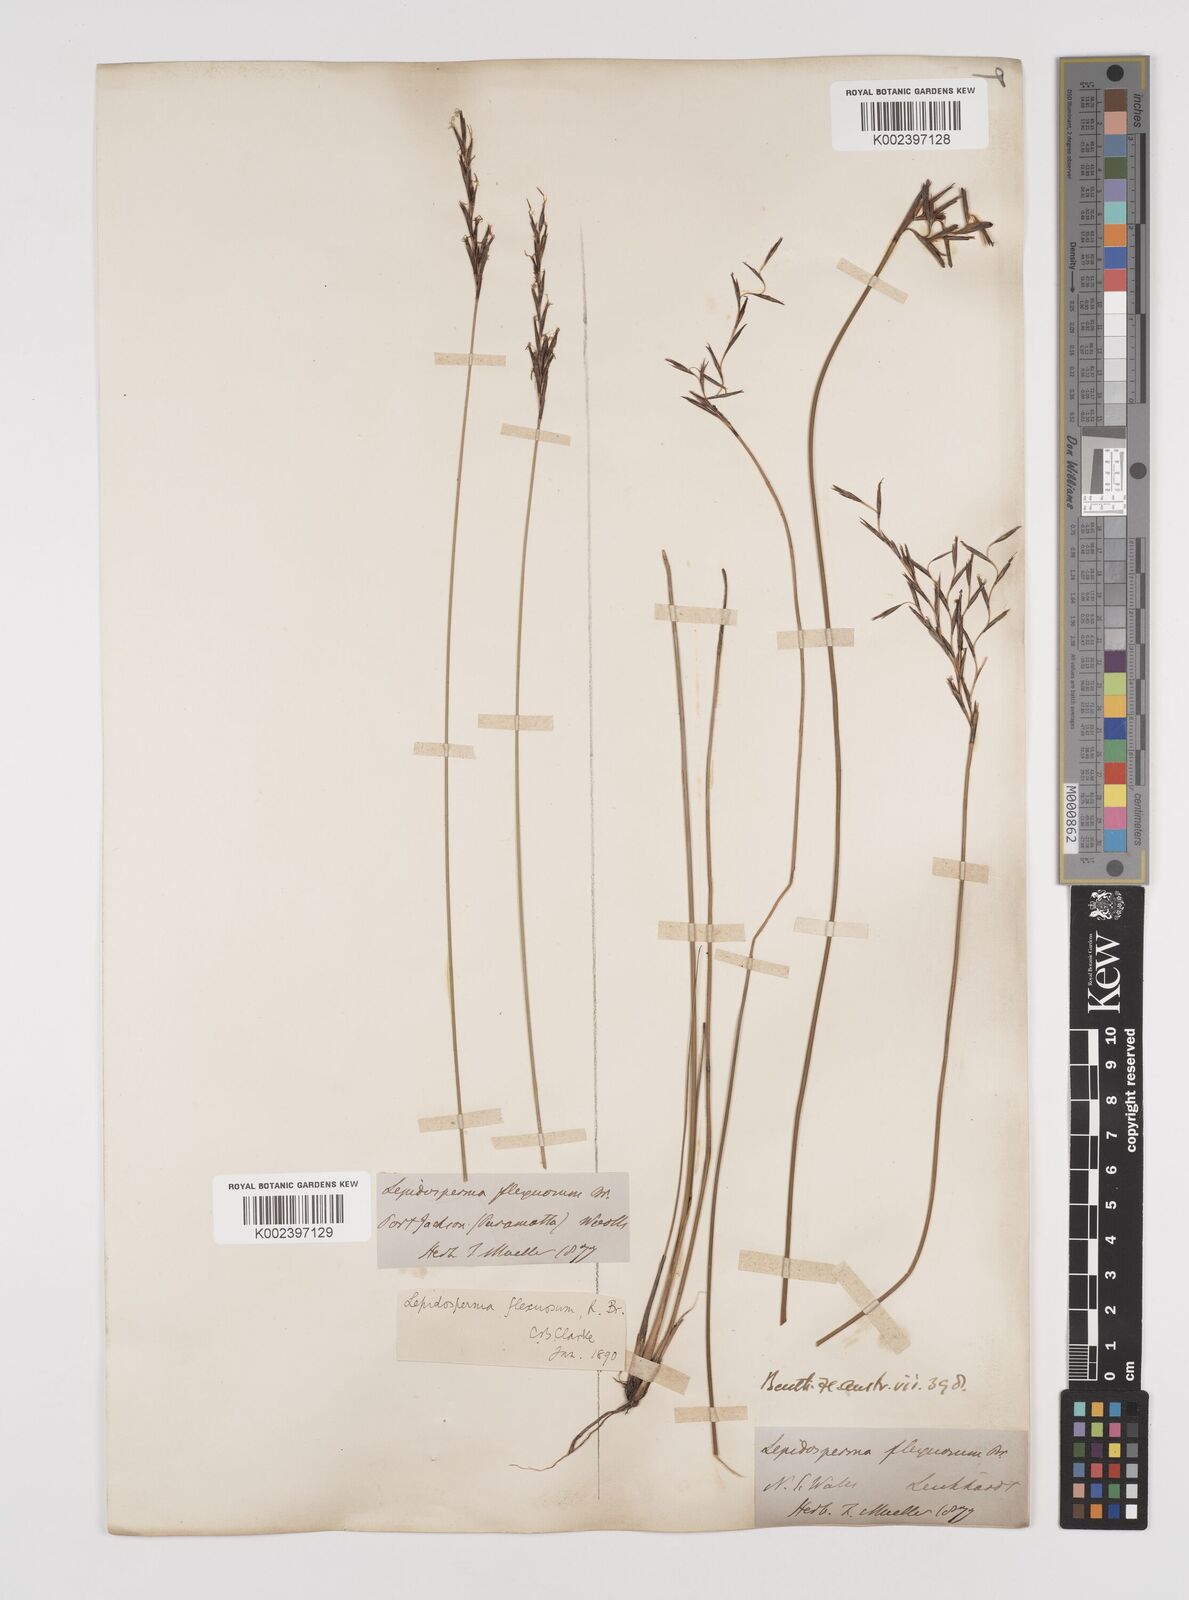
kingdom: Plantae
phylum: Tracheophyta
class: Liliopsida
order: Poales
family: Cyperaceae
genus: Lepidosperma
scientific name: Lepidosperma flexuosum
